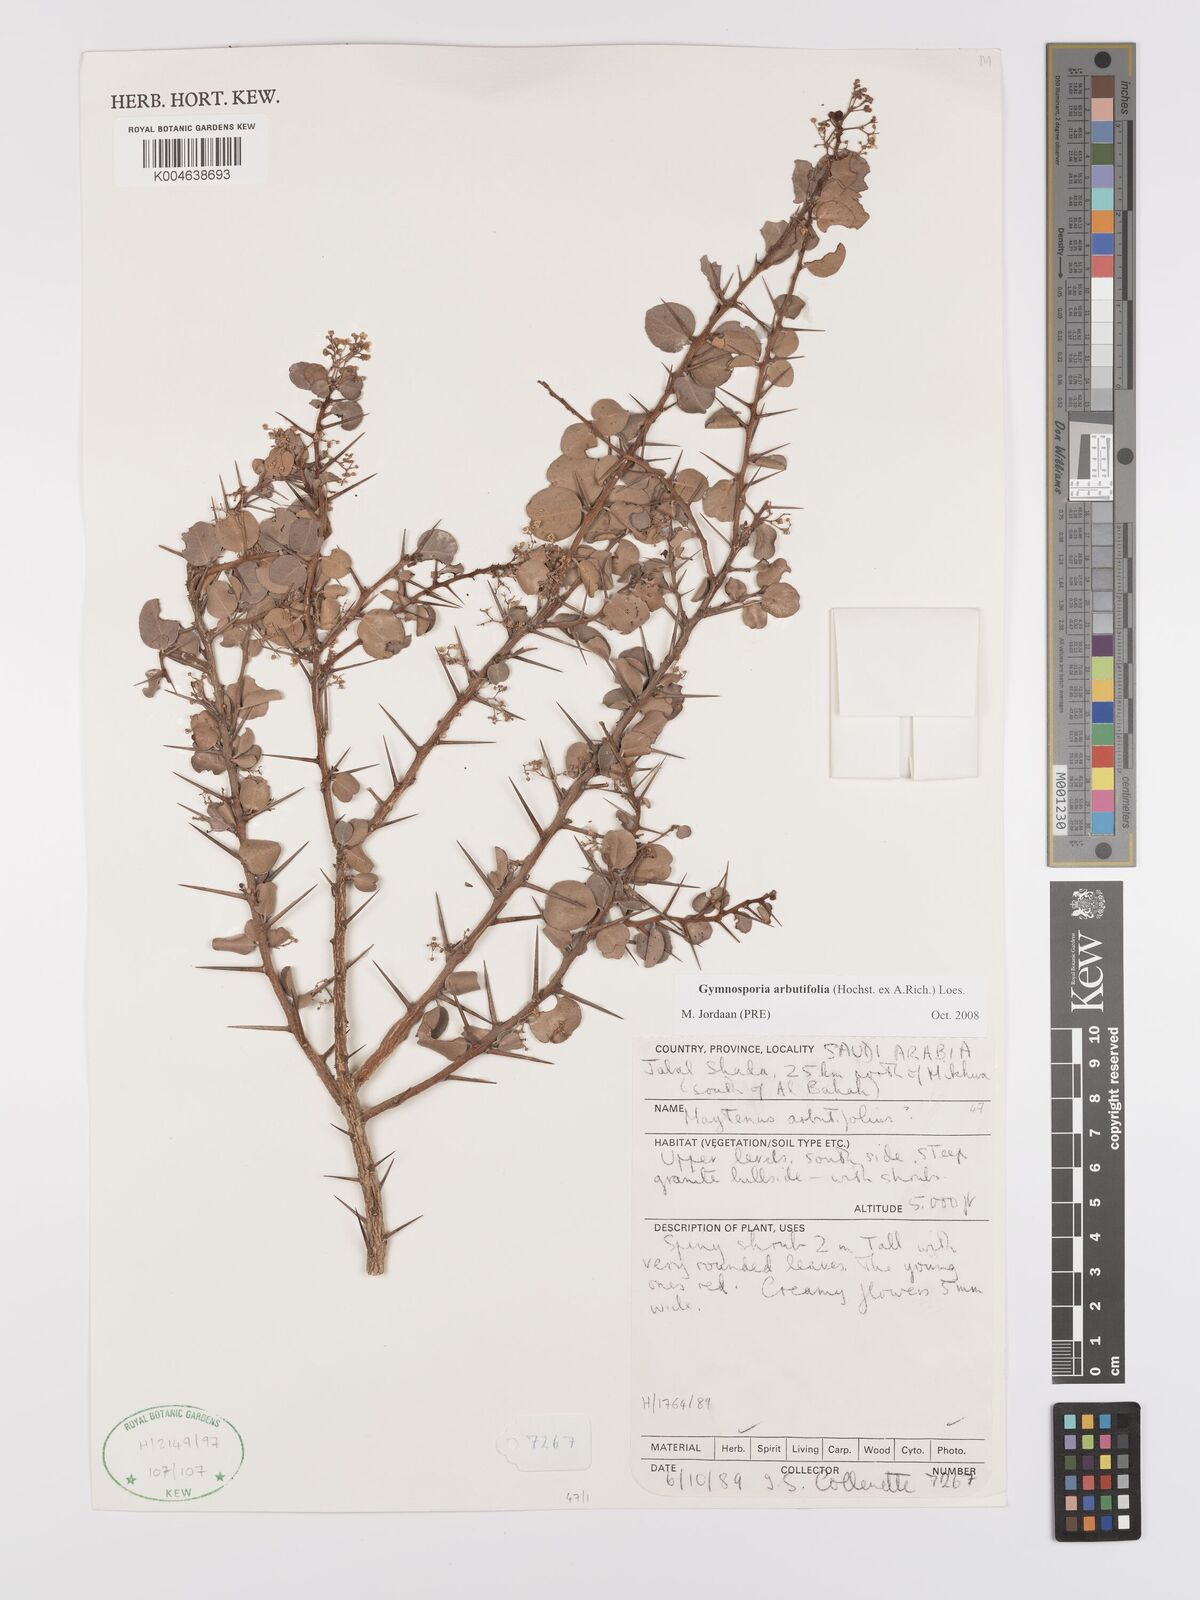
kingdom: Plantae
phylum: Tracheophyta
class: Magnoliopsida
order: Celastrales
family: Celastraceae
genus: Gymnosporia
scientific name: Gymnosporia arbutifolia
